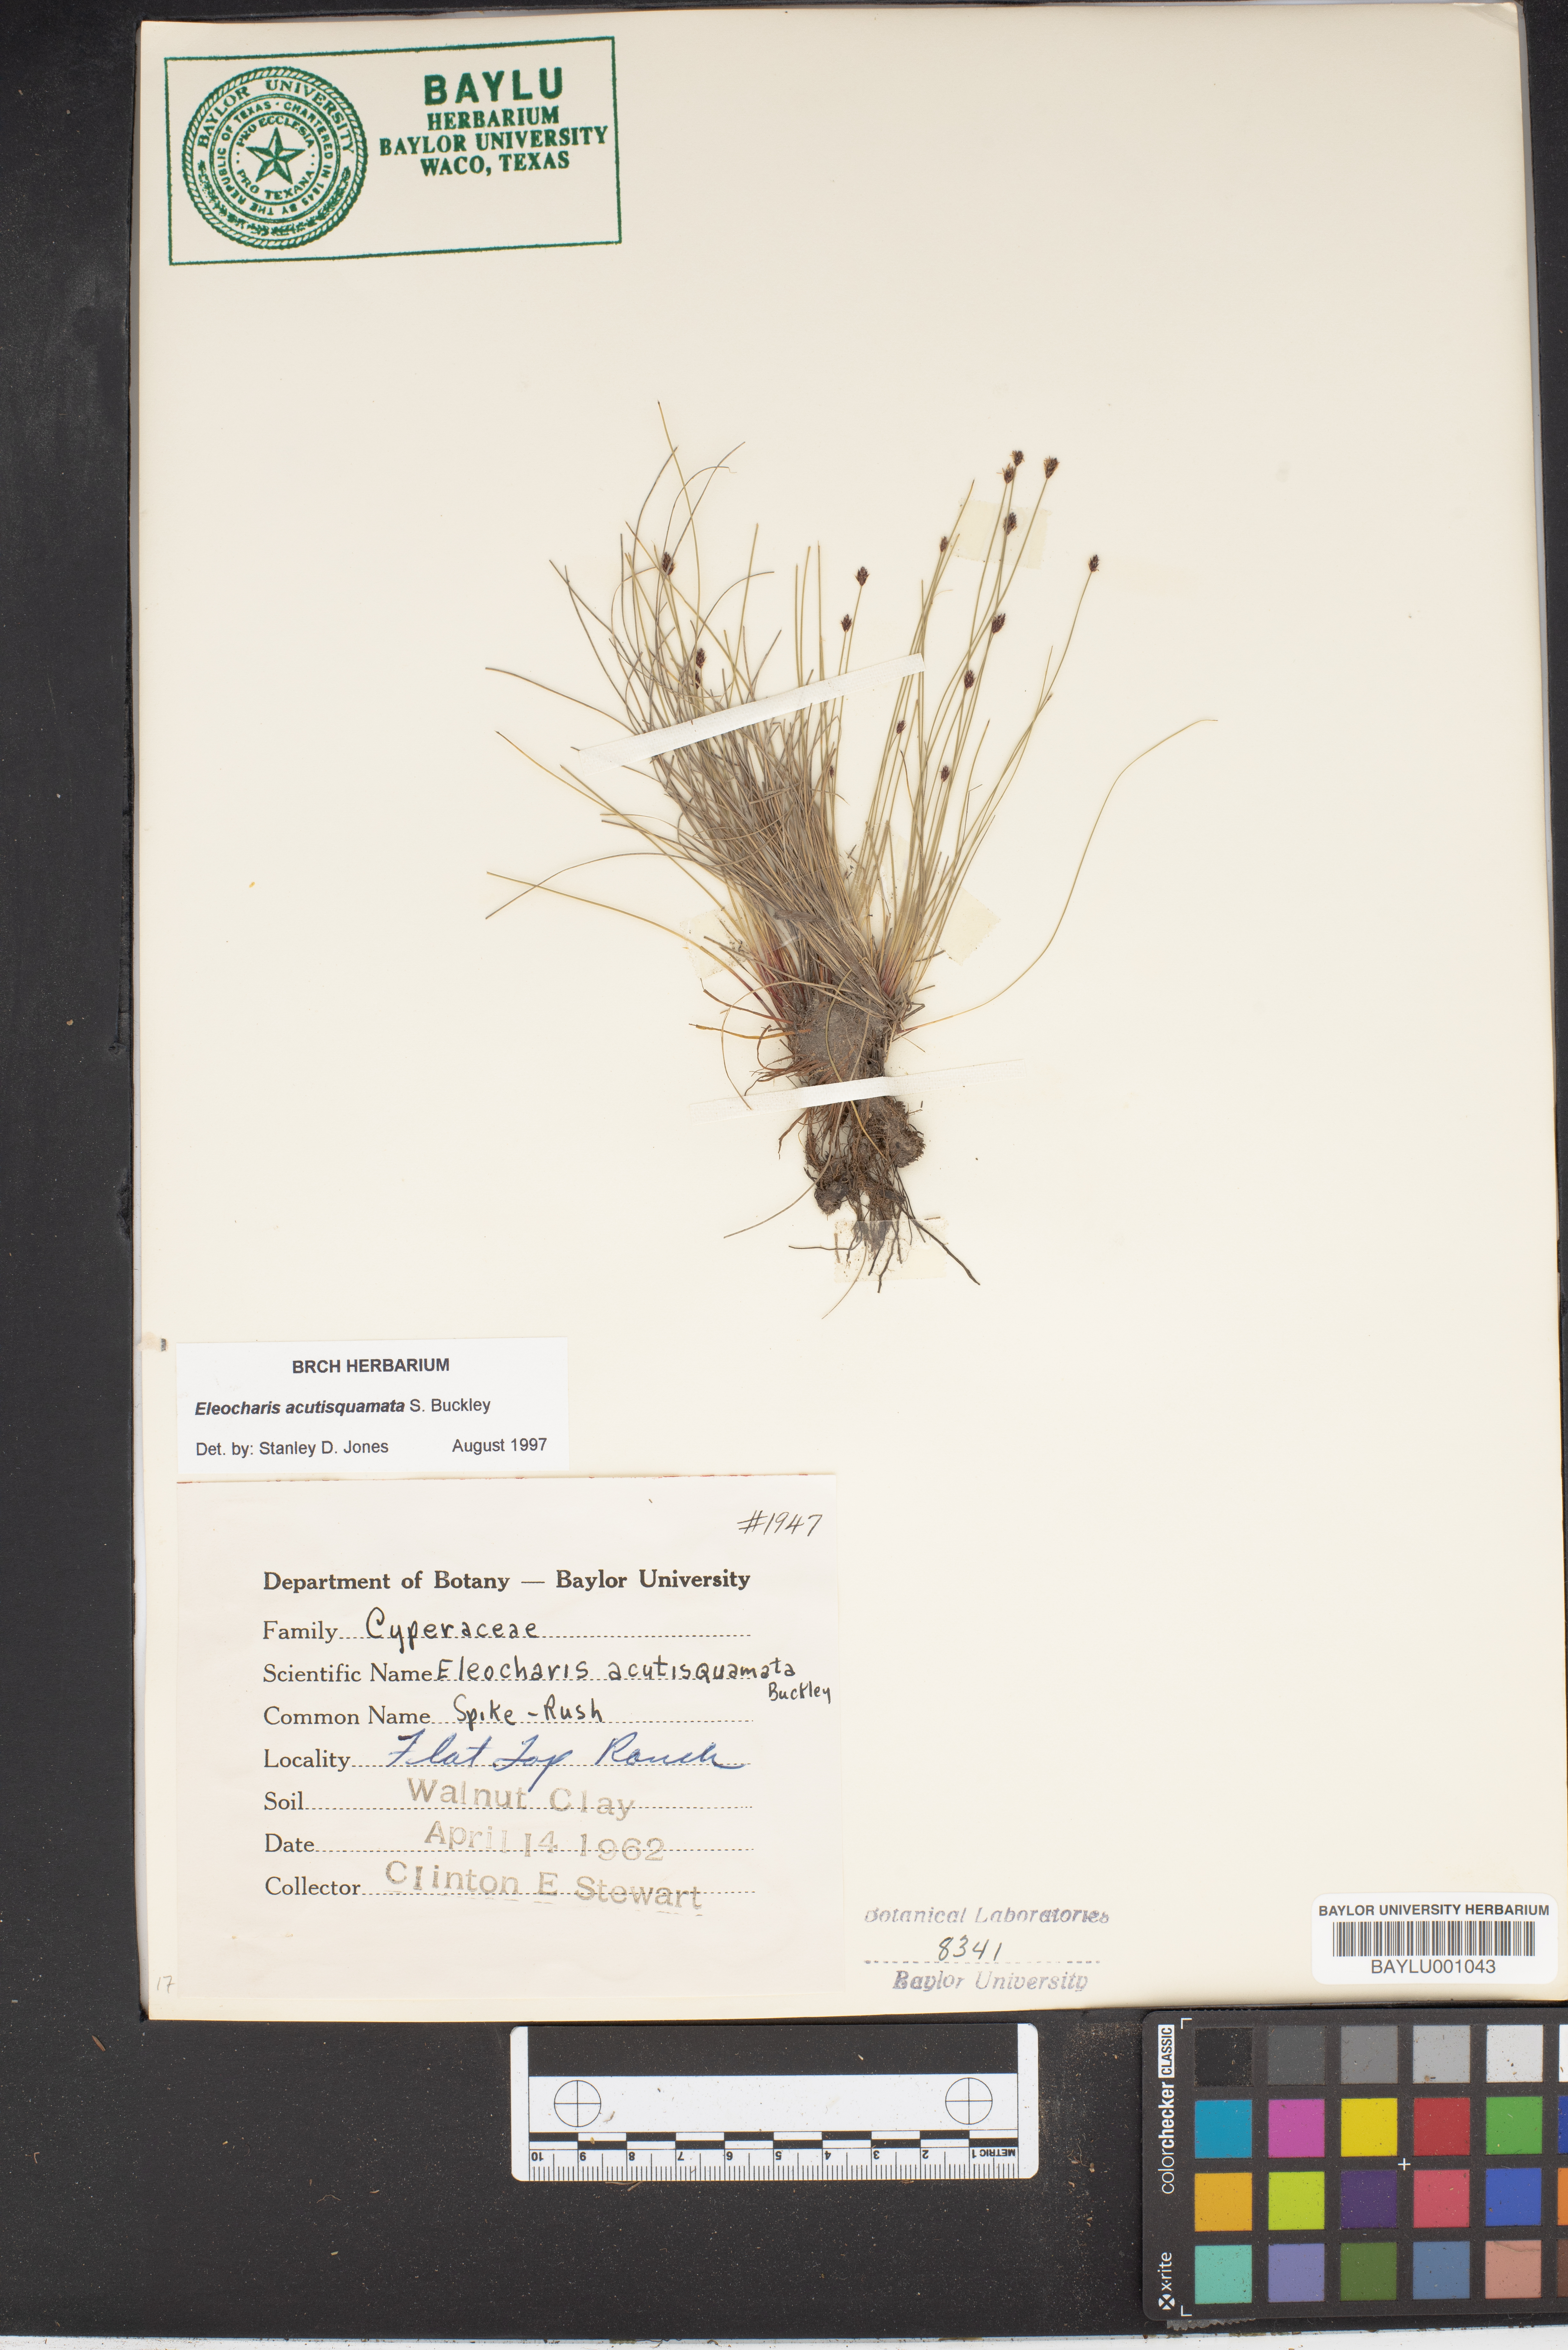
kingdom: Plantae
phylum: Tracheophyta
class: Liliopsida
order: Poales
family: Cyperaceae
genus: Eleocharis
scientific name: Eleocharis compressa
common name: Flat-stem spike-rush
